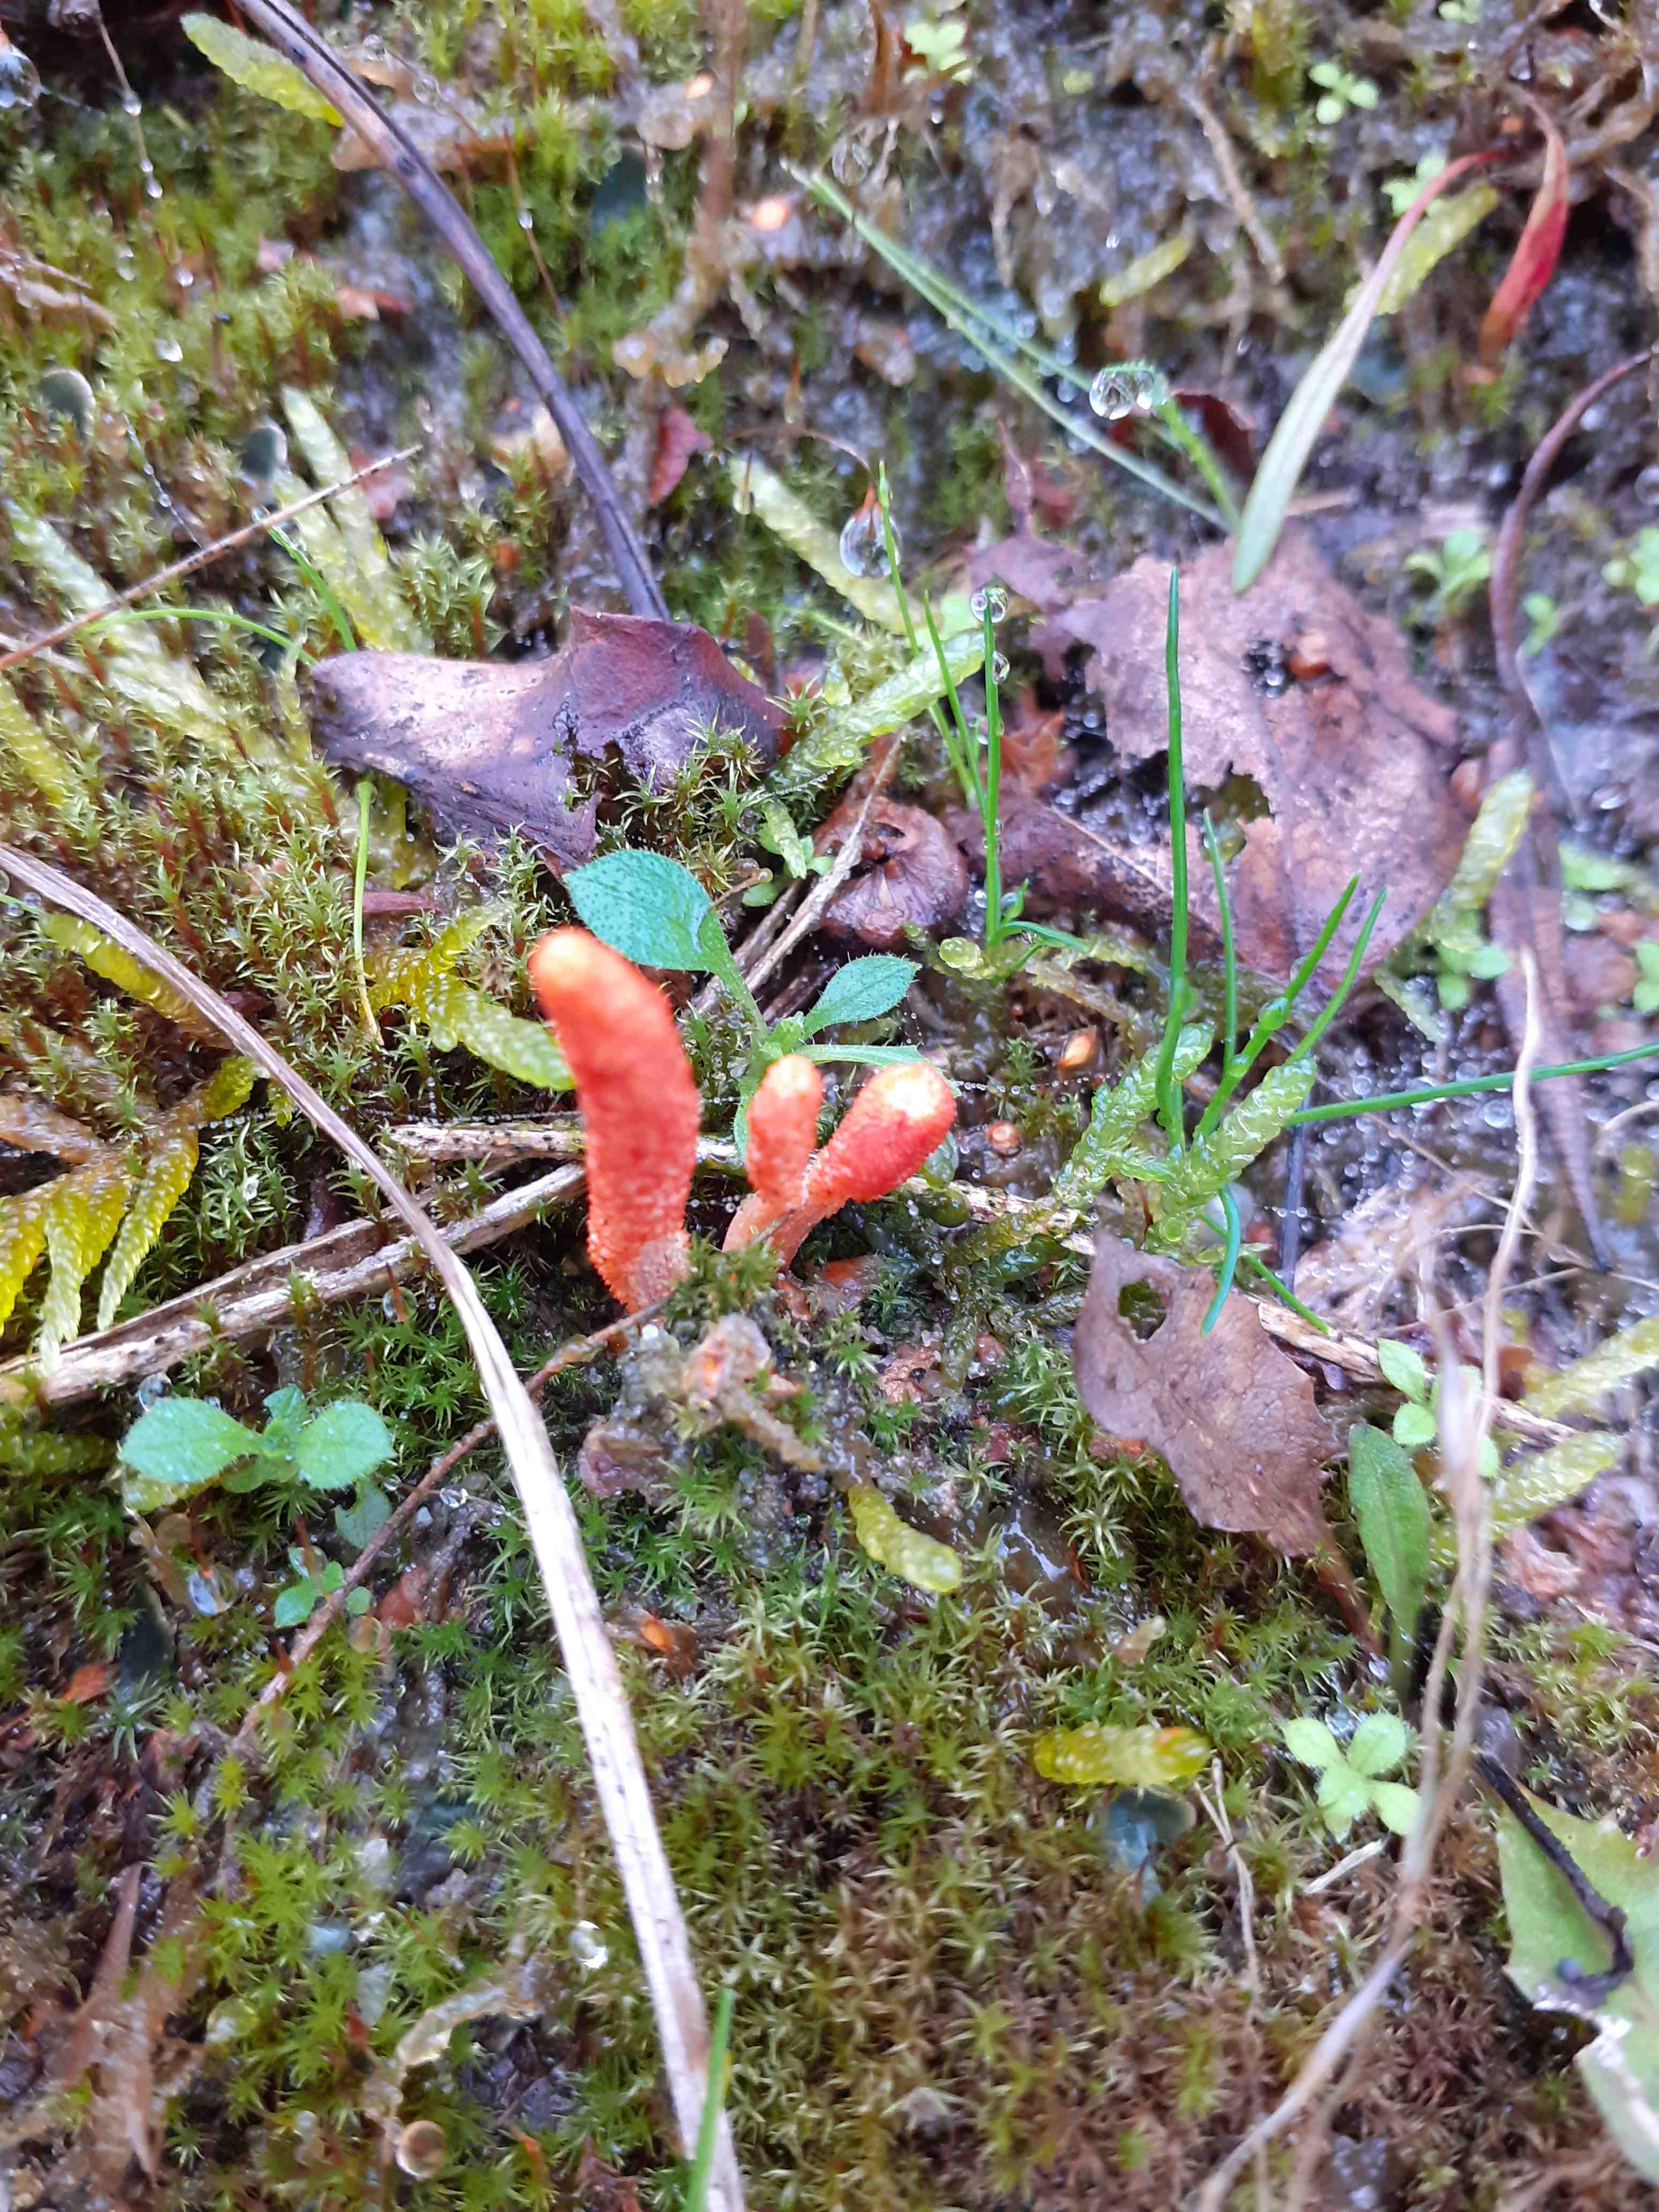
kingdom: Fungi
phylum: Ascomycota
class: Sordariomycetes
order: Hypocreales
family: Cordycipitaceae
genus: Cordyceps
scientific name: Cordyceps militaris
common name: puppe-snyltekølle
